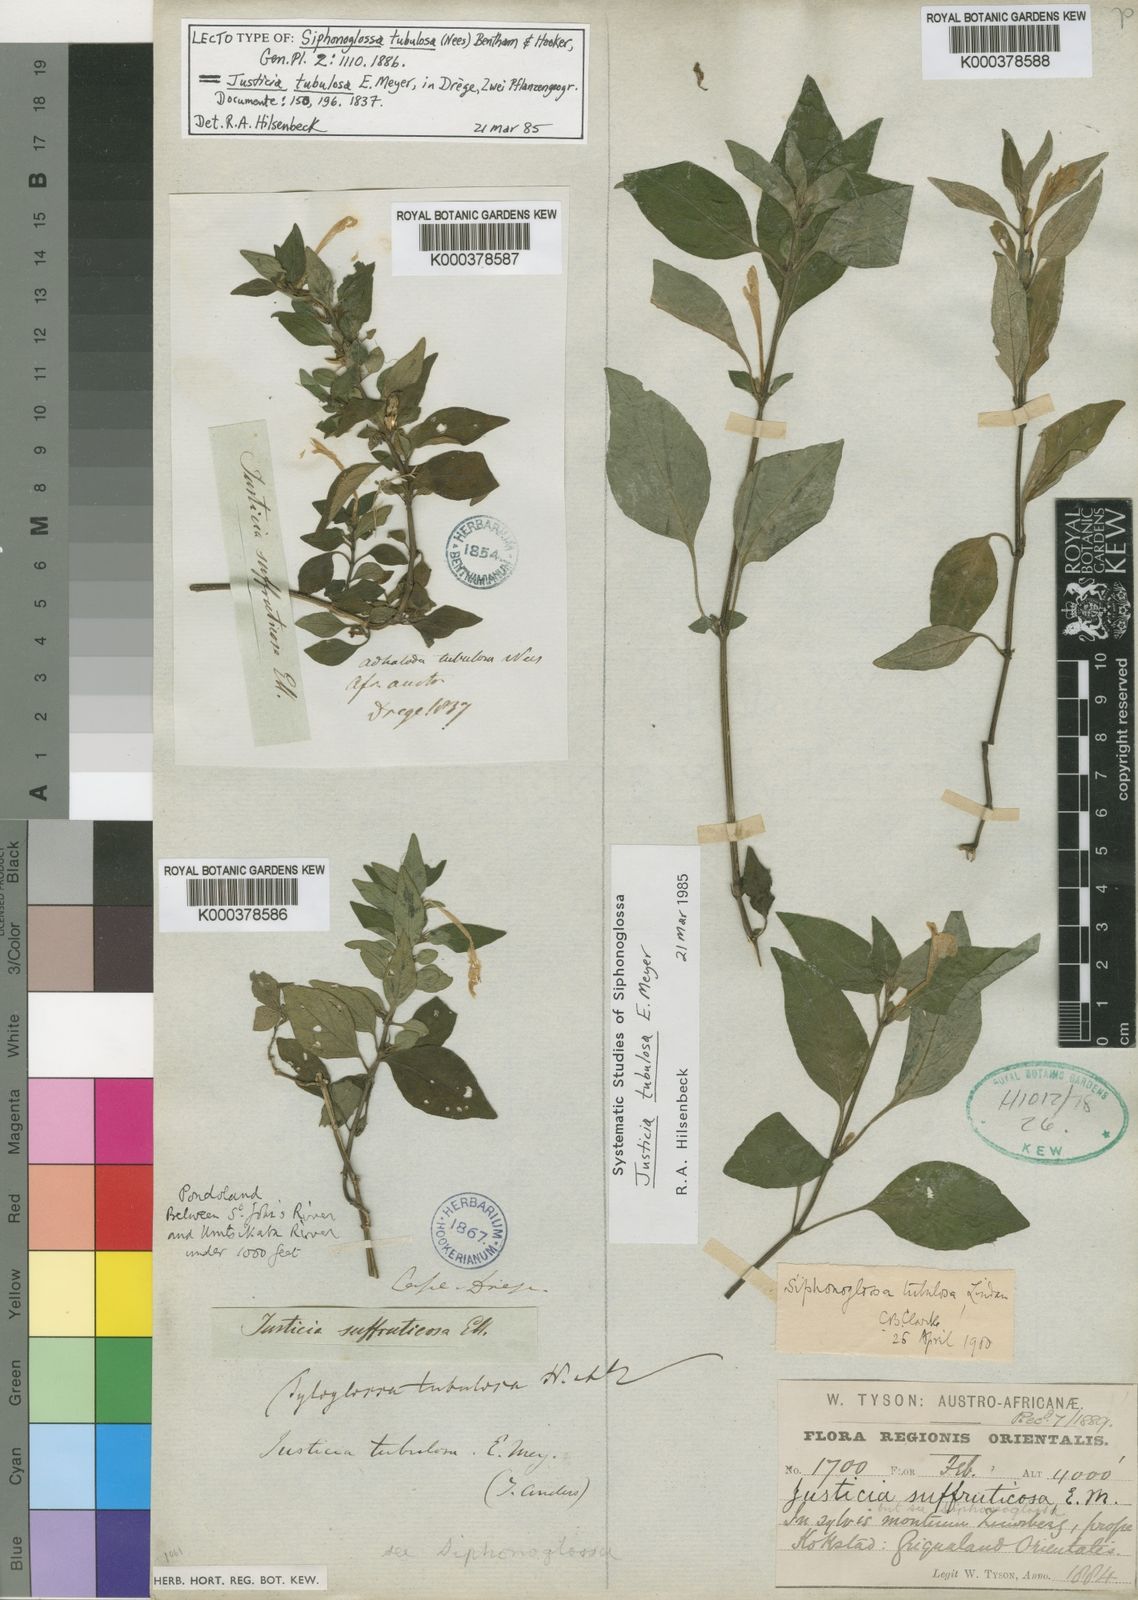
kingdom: Plantae
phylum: Tracheophyta
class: Magnoliopsida
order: Lamiales
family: Acanthaceae
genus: Justicia
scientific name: Justicia
